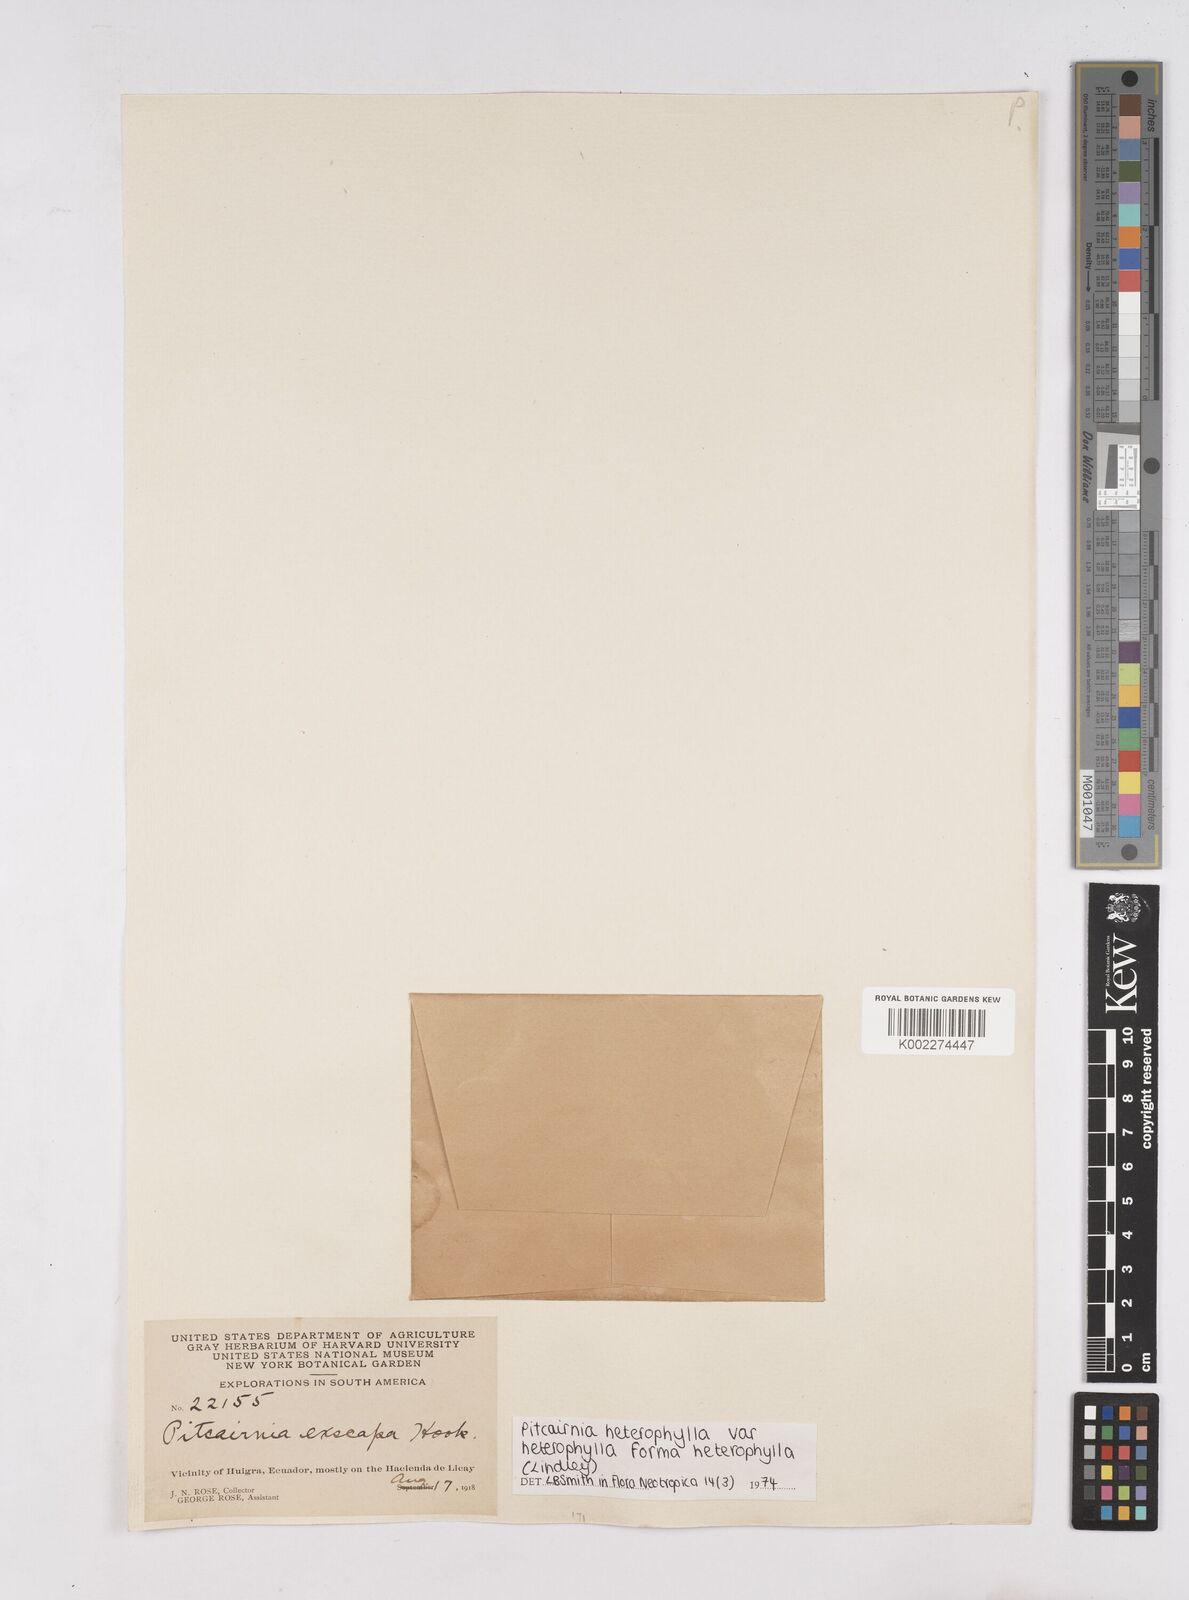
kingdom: Plantae
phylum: Tracheophyta
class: Liliopsida
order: Poales
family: Bromeliaceae
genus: Pitcairnia
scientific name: Pitcairnia heterophylla
